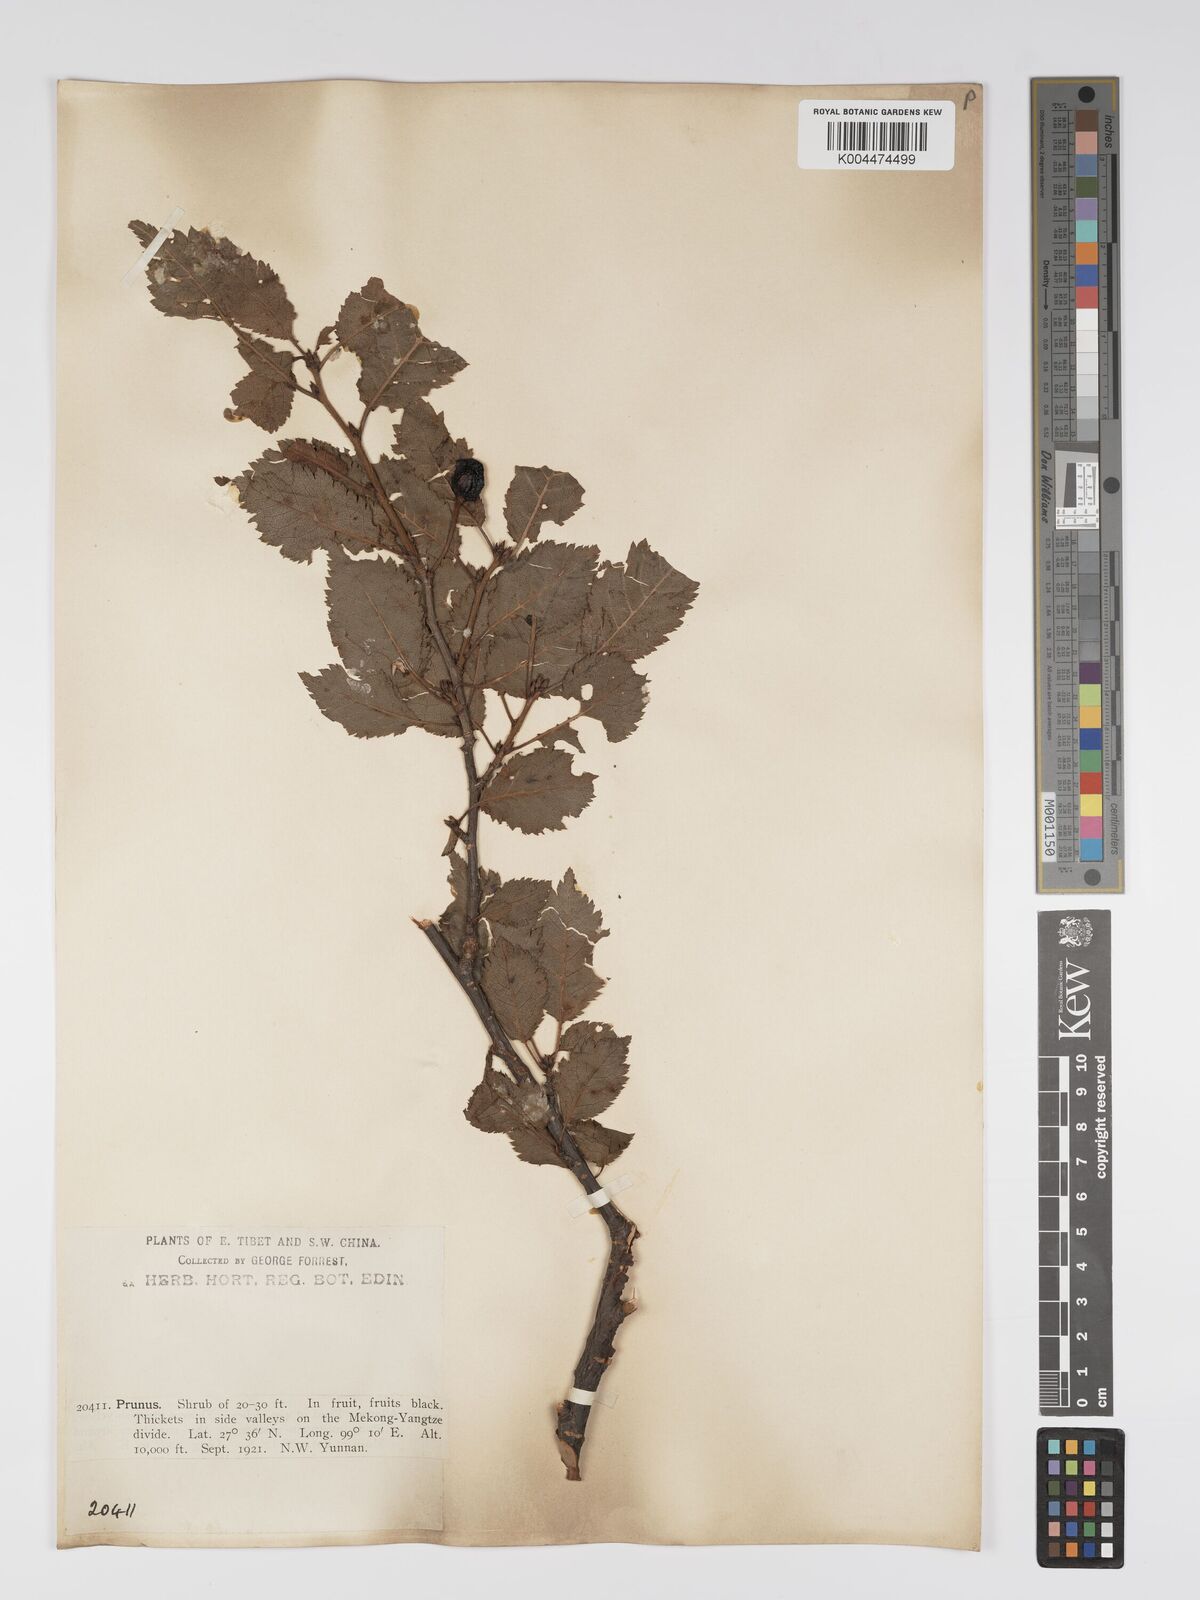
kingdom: Plantae
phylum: Tracheophyta
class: Magnoliopsida
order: Rosales
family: Rosaceae
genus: Prunus
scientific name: Prunus
